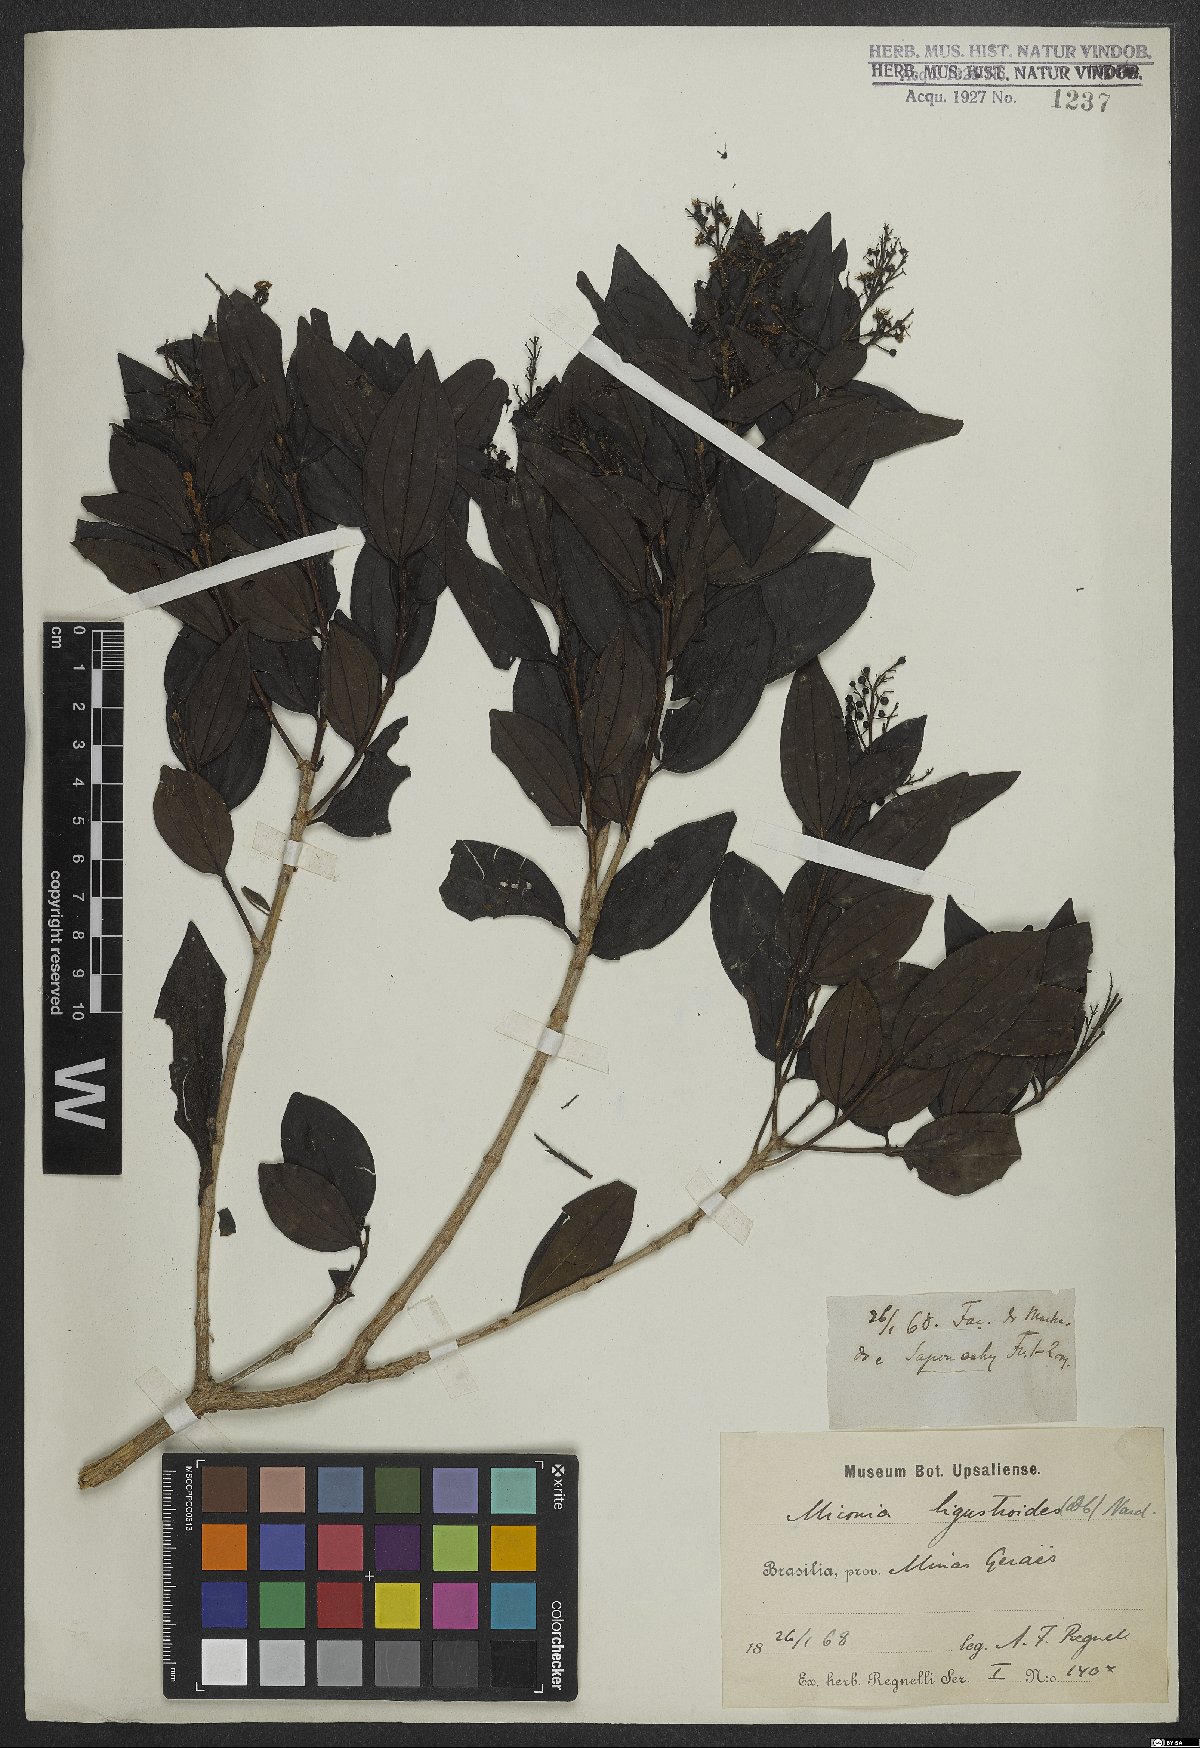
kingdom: Plantae
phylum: Tracheophyta
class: Magnoliopsida
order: Myrtales
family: Melastomataceae
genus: Miconia
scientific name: Miconia ligustroides
